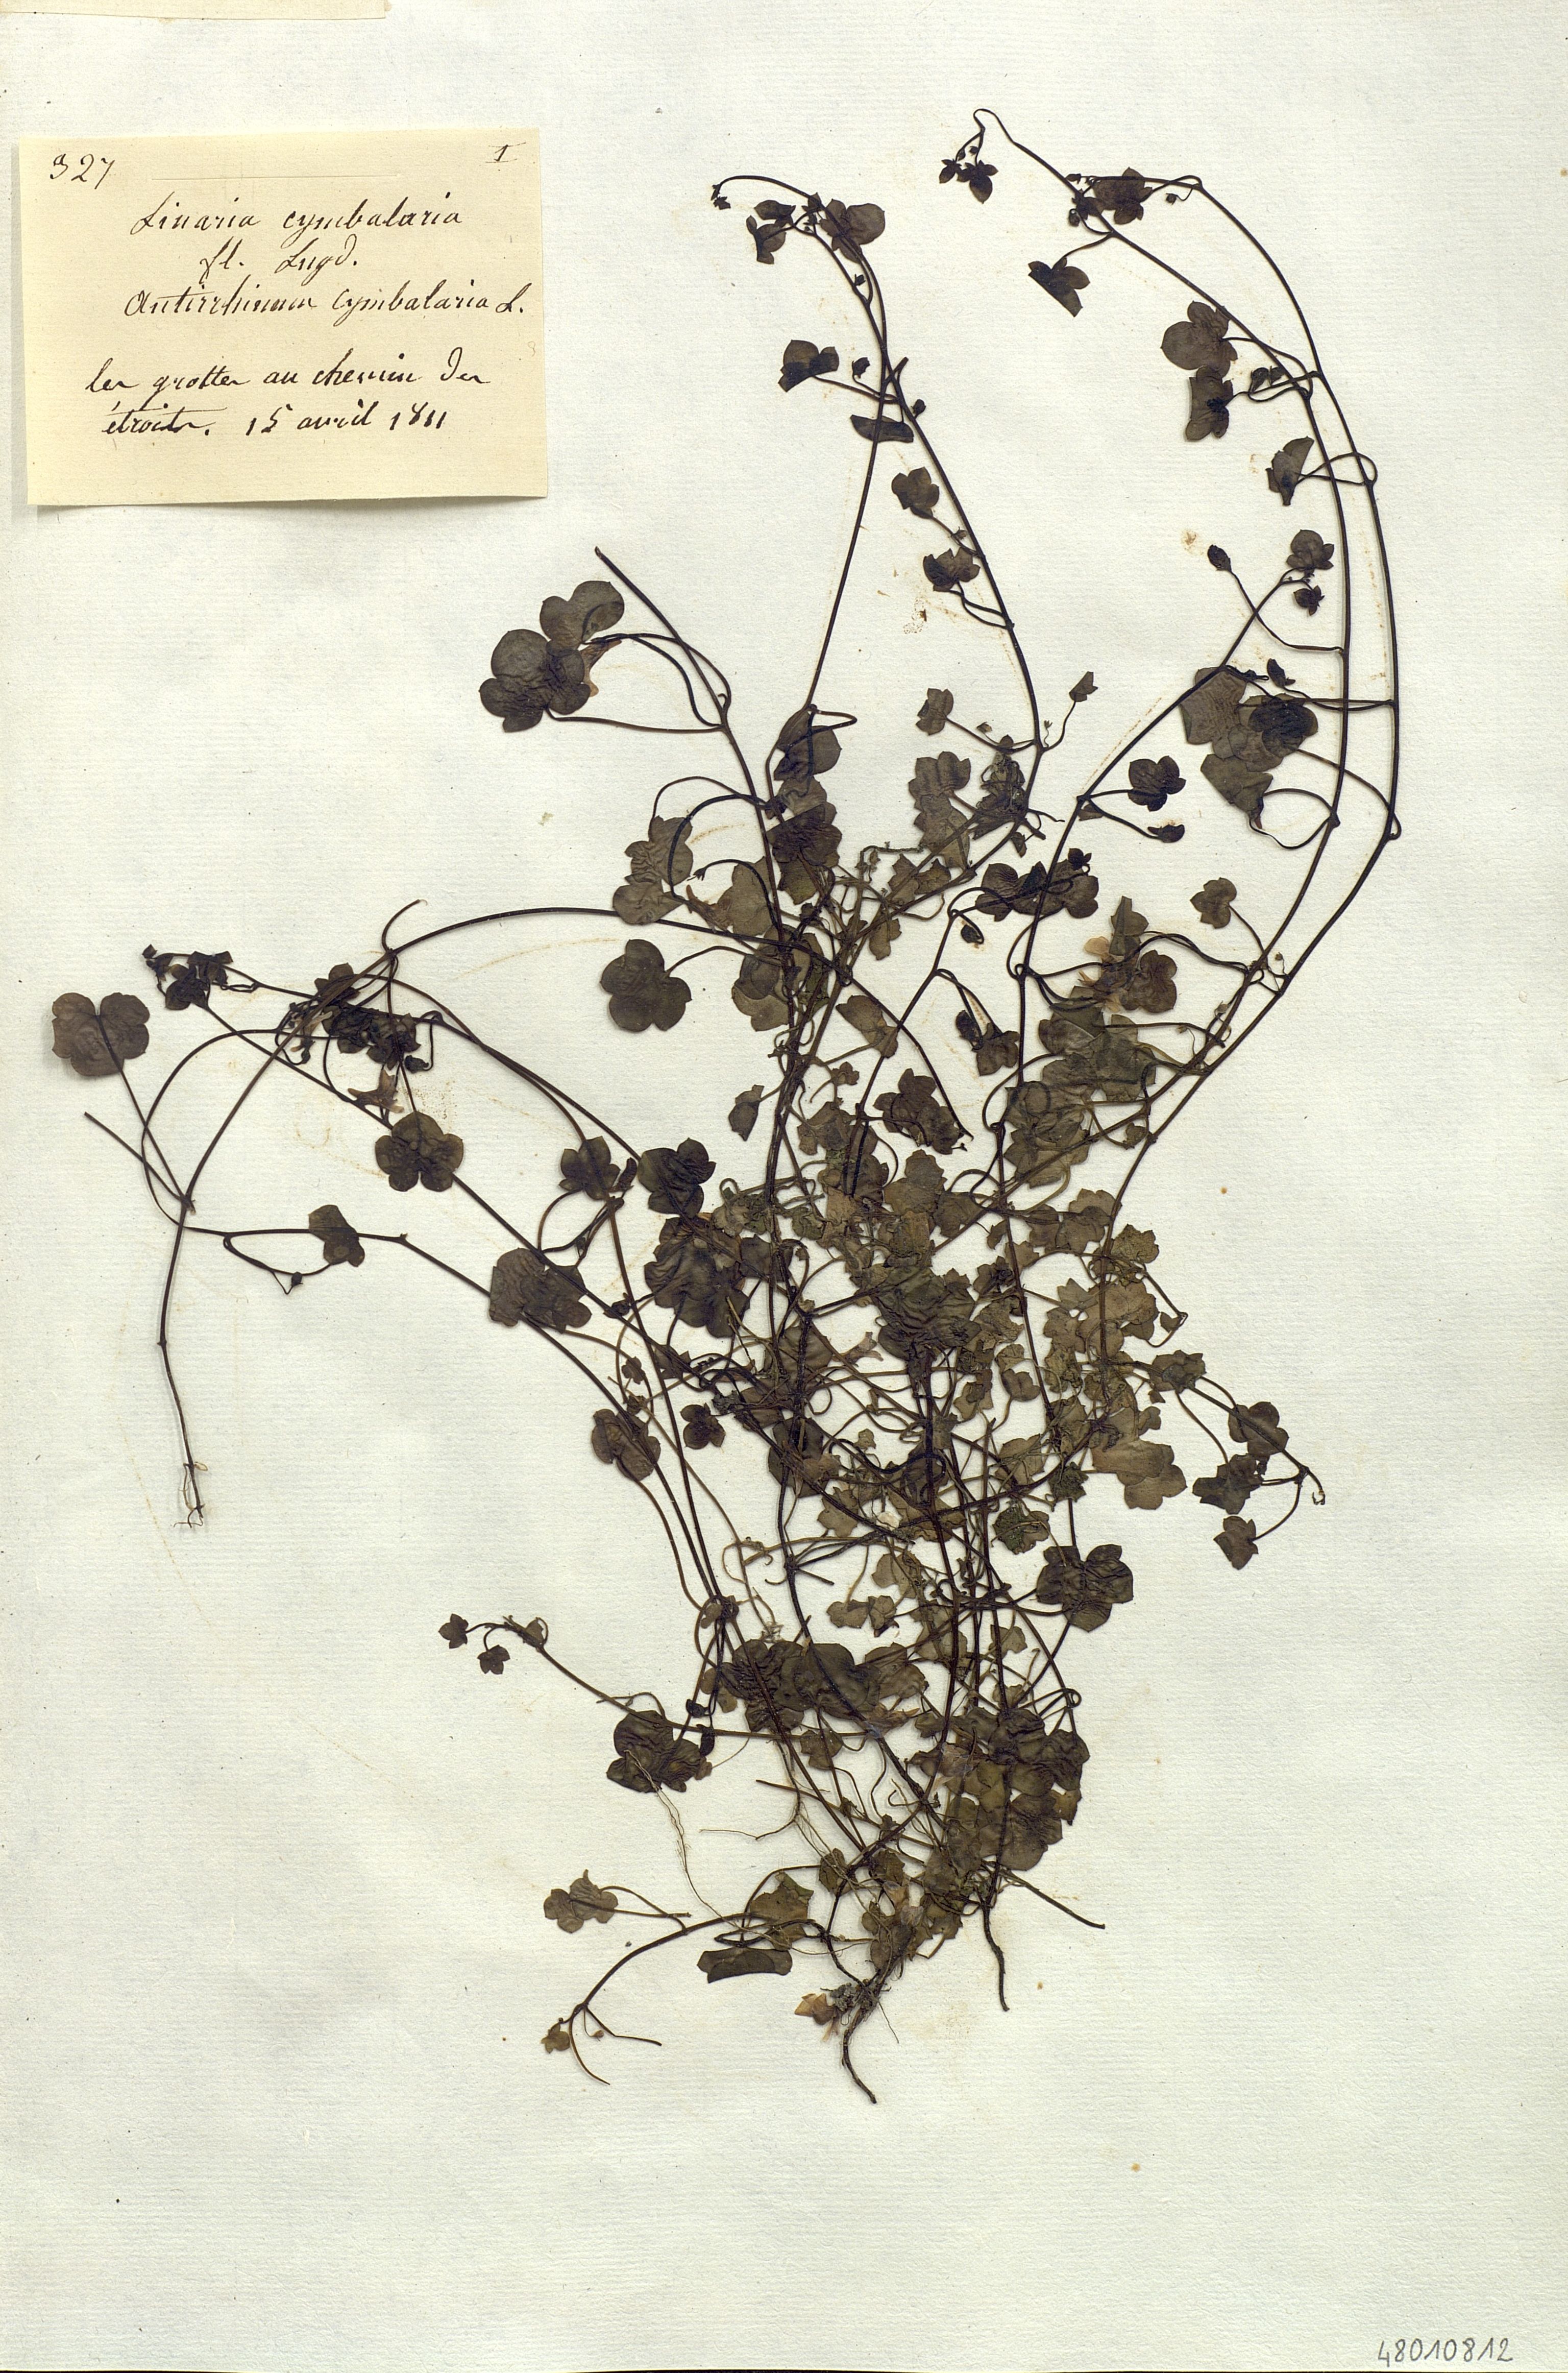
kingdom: Plantae
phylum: Tracheophyta
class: Magnoliopsida
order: Lamiales
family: Plantaginaceae
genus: Cymbalaria
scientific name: Cymbalaria muralis
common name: Ivy-leaved toadflax
